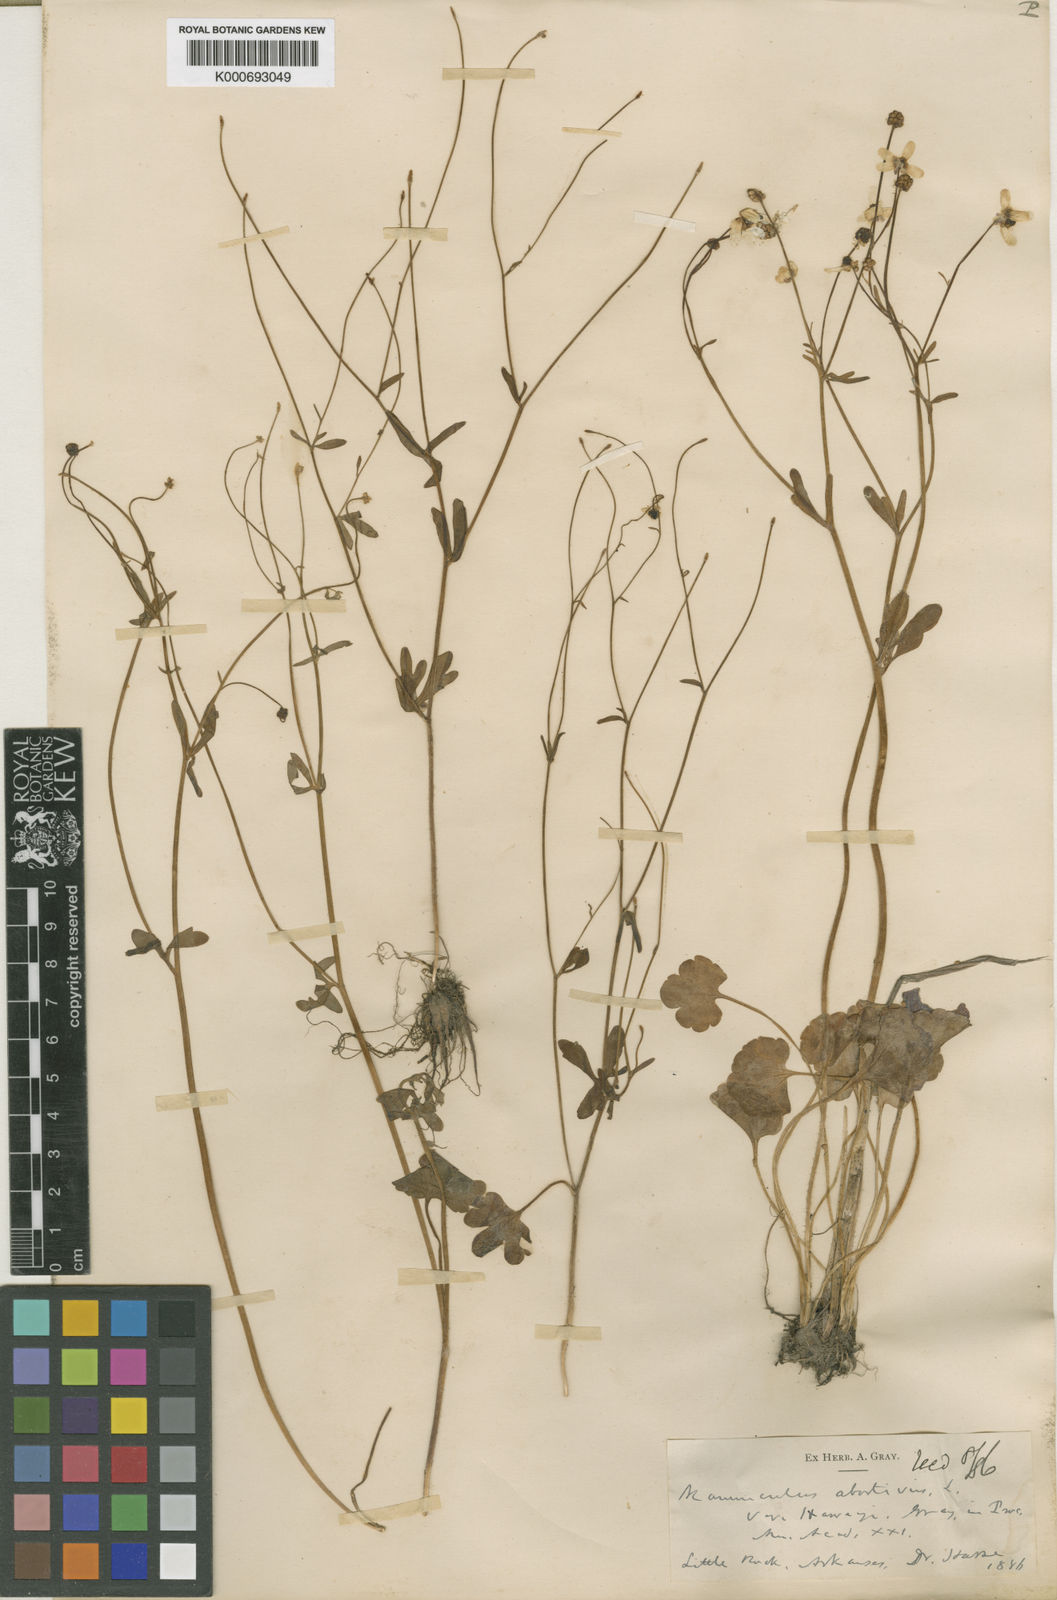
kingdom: Plantae
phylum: Tracheophyta
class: Magnoliopsida
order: Ranunculales
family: Ranunculaceae
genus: Ranunculus
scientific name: Ranunculus harveyi
